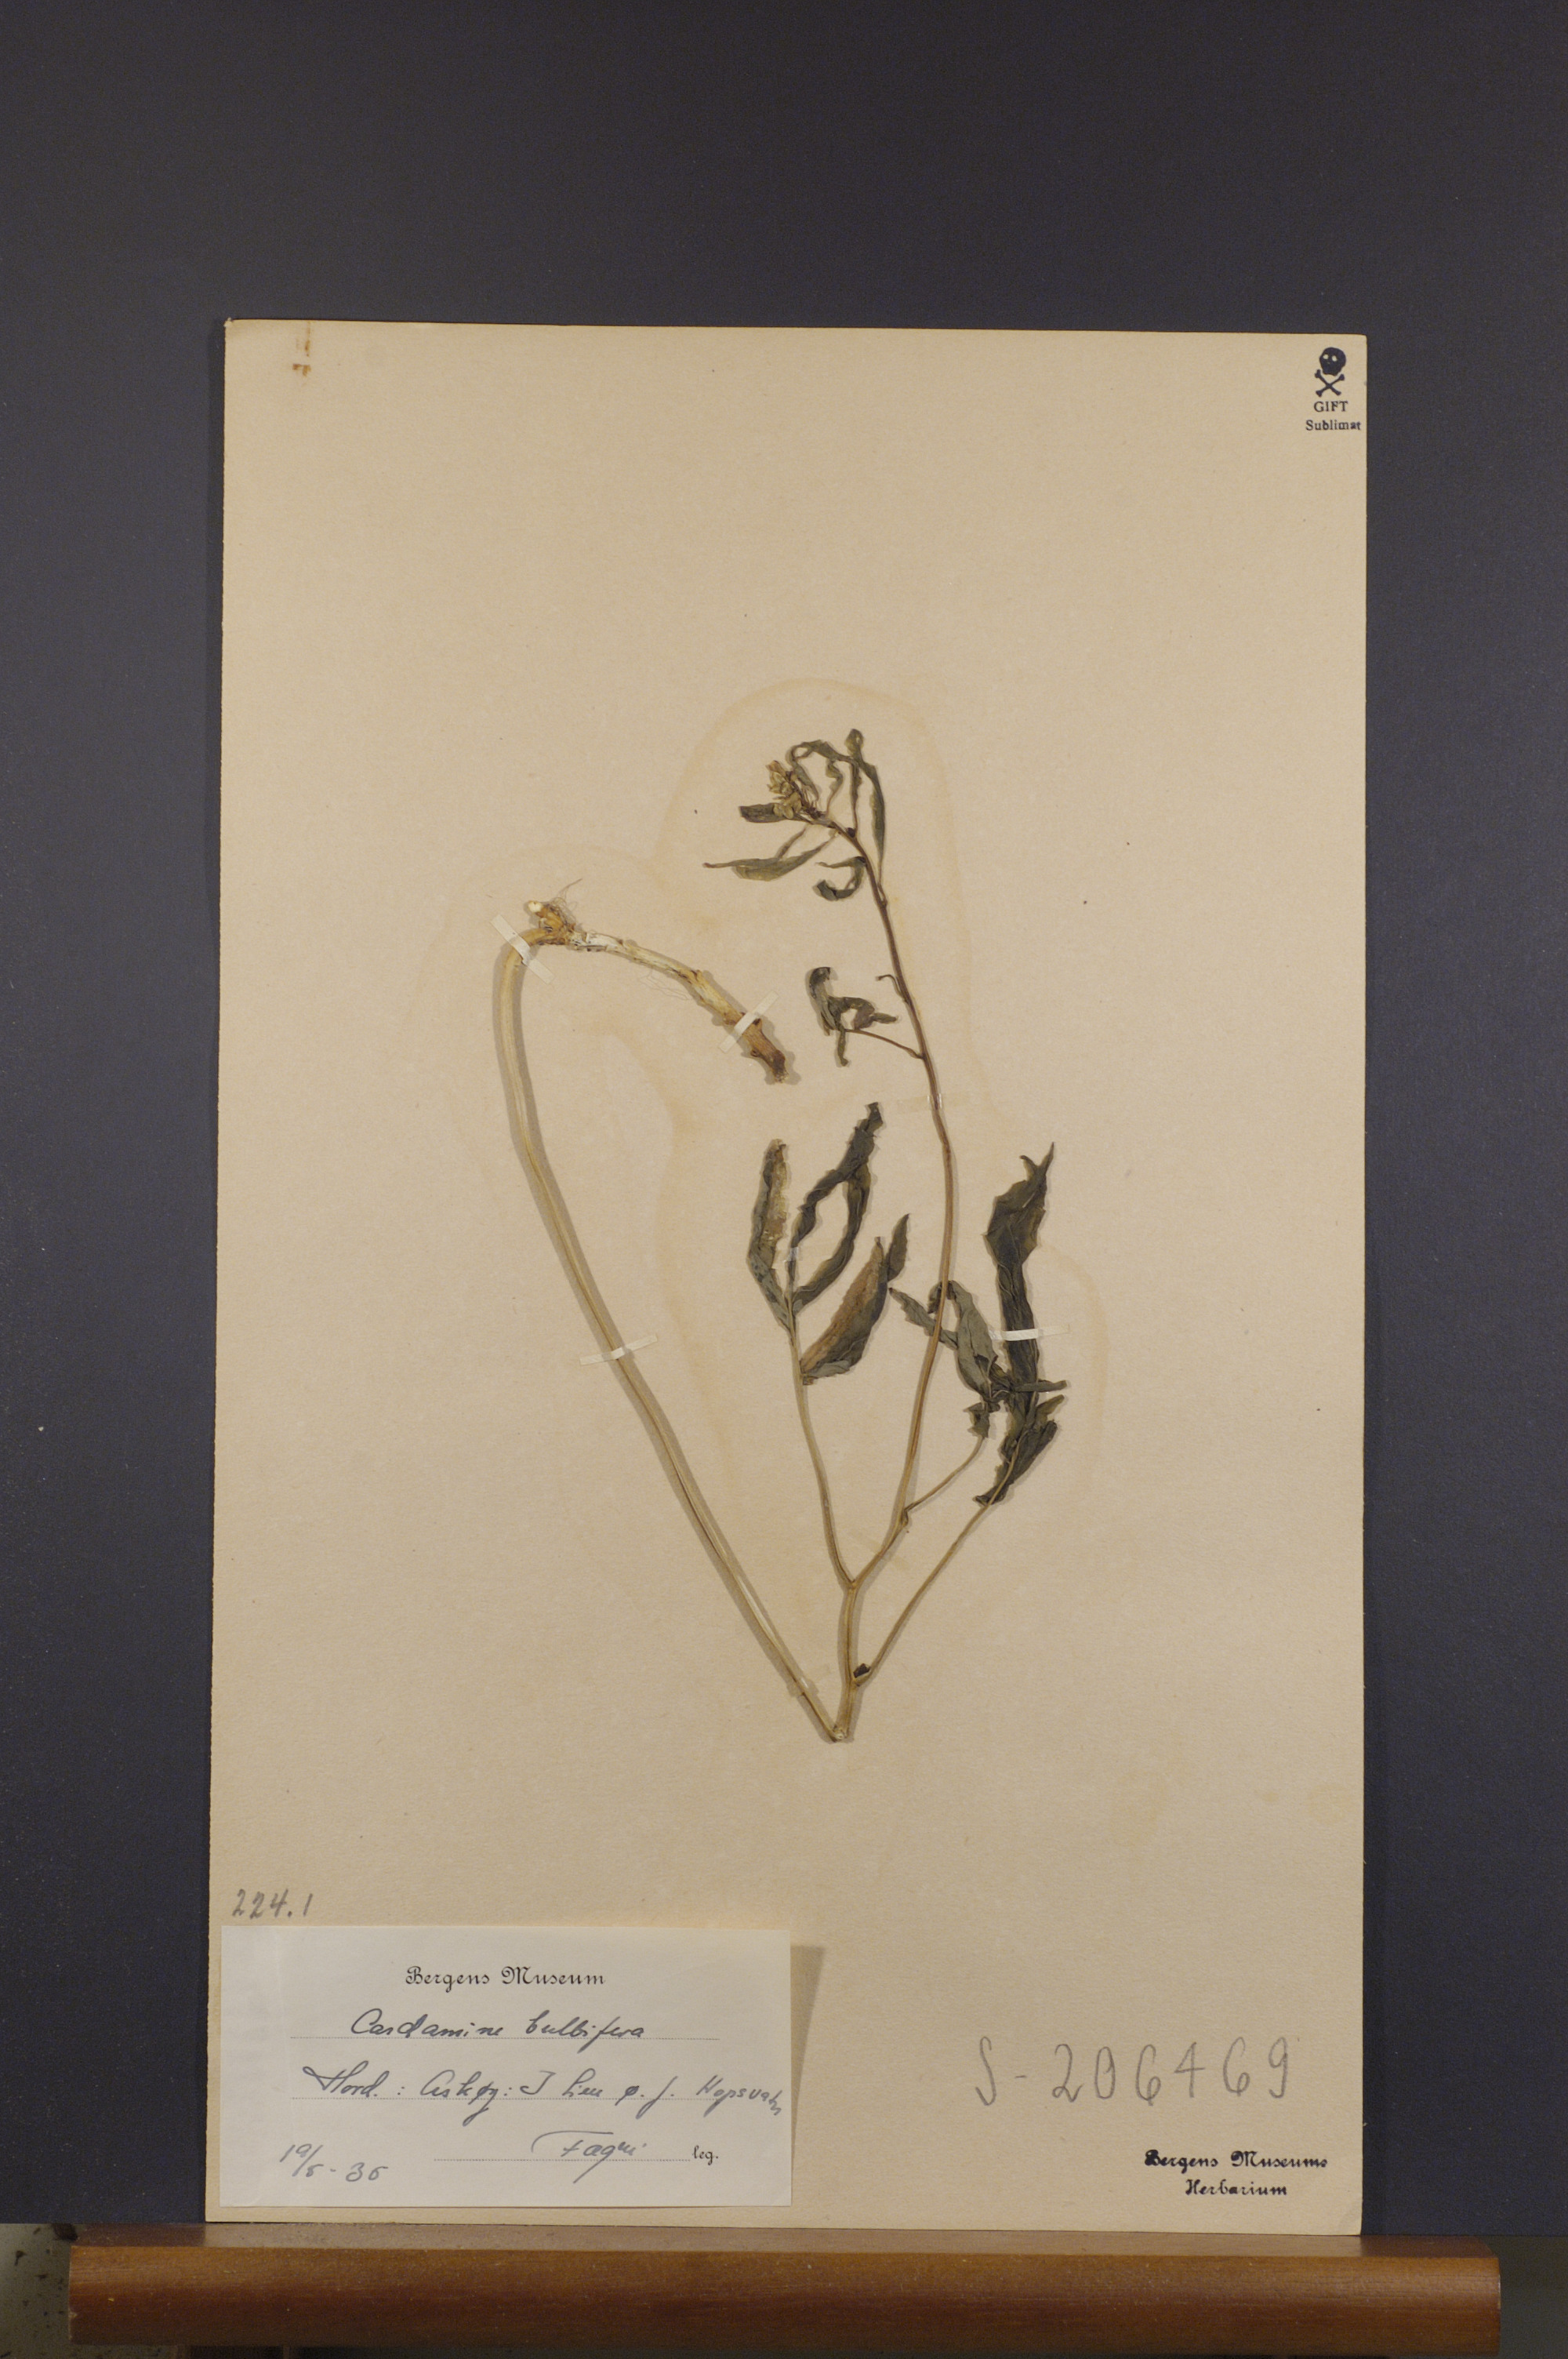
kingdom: Plantae
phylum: Tracheophyta
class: Magnoliopsida
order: Brassicales
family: Brassicaceae
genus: Cardamine
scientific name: Cardamine bulbifera
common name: Coralroot bittercress
